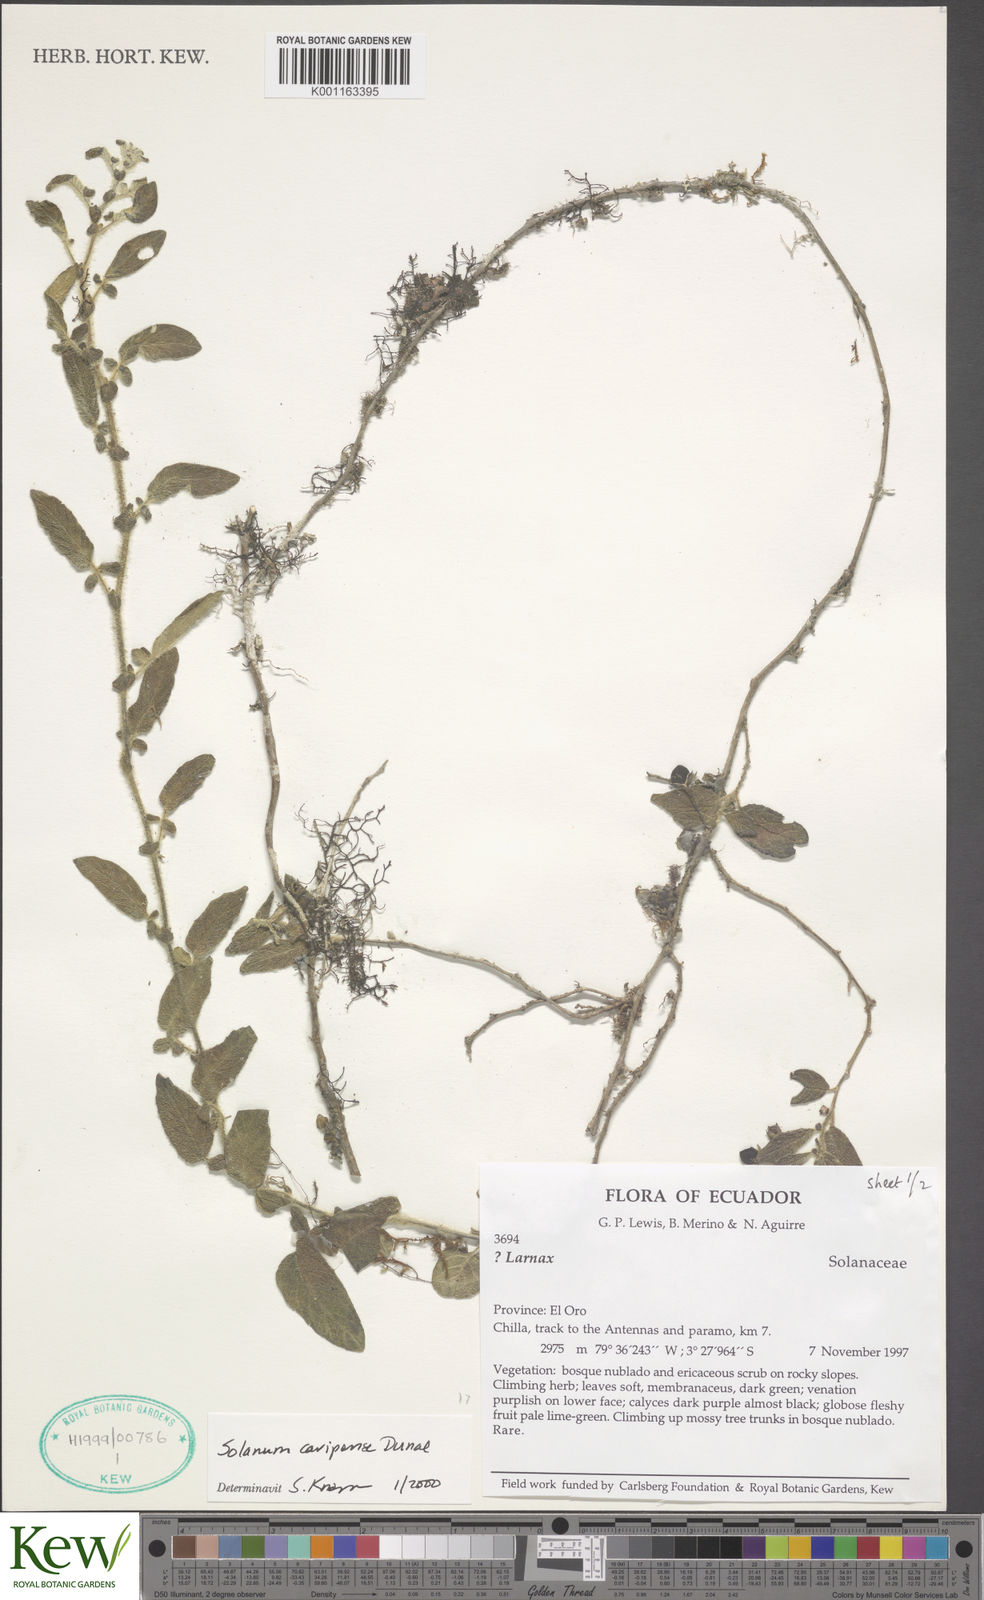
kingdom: Plantae
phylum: Tracheophyta
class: Magnoliopsida
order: Solanales
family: Solanaceae
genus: Solanum
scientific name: Solanum caripense
